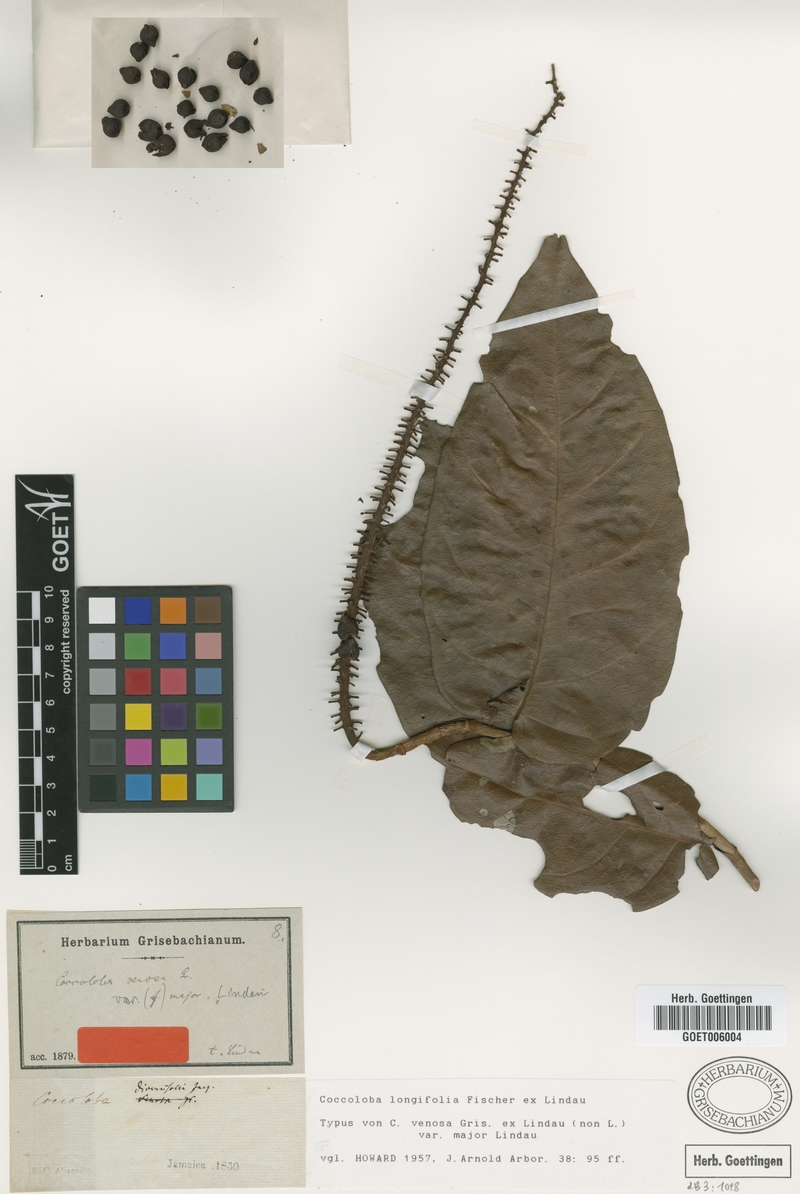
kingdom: Plantae
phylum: Tracheophyta
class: Magnoliopsida
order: Caryophyllales
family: Polygonaceae
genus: Coccoloba
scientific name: Coccoloba longifolia
